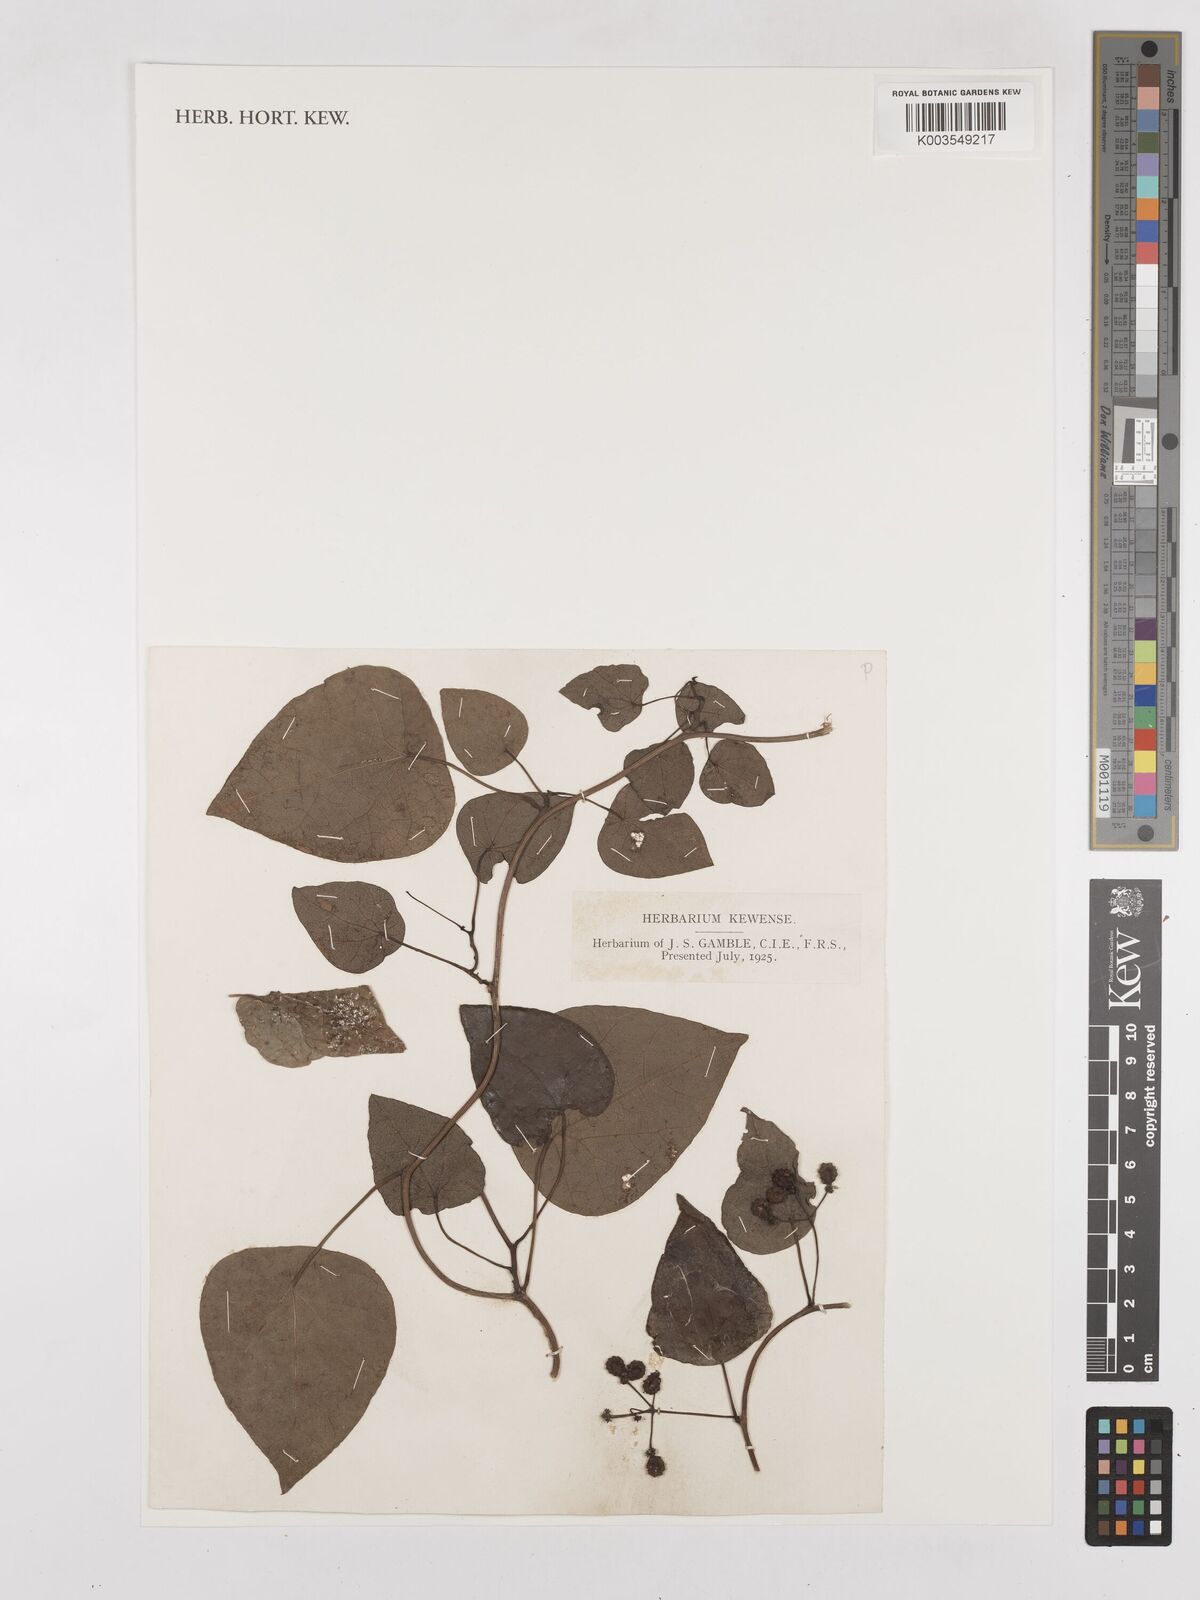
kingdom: Plantae
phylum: Tracheophyta
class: Magnoliopsida
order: Ranunculales
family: Menispermaceae
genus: Stephania
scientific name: Stephania japonica
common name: Snake vine
